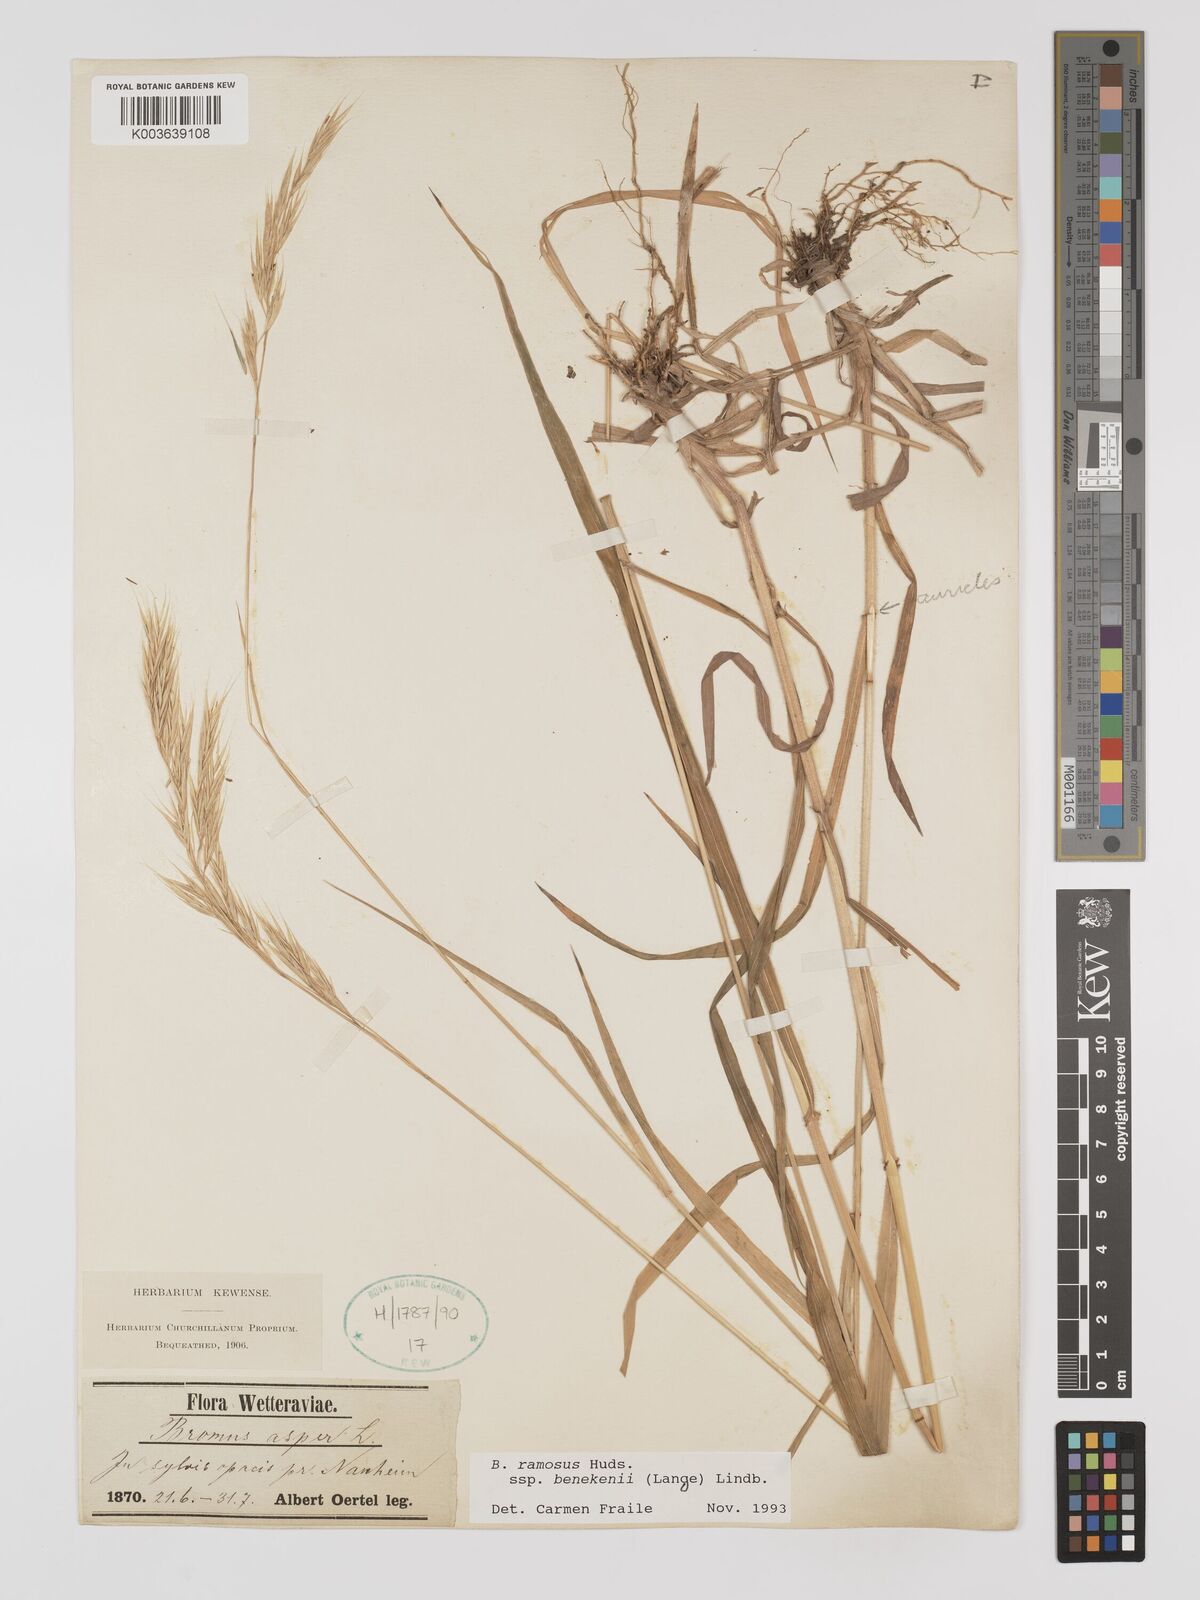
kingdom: Plantae
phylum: Tracheophyta
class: Liliopsida
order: Poales
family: Poaceae
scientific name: Poaceae
